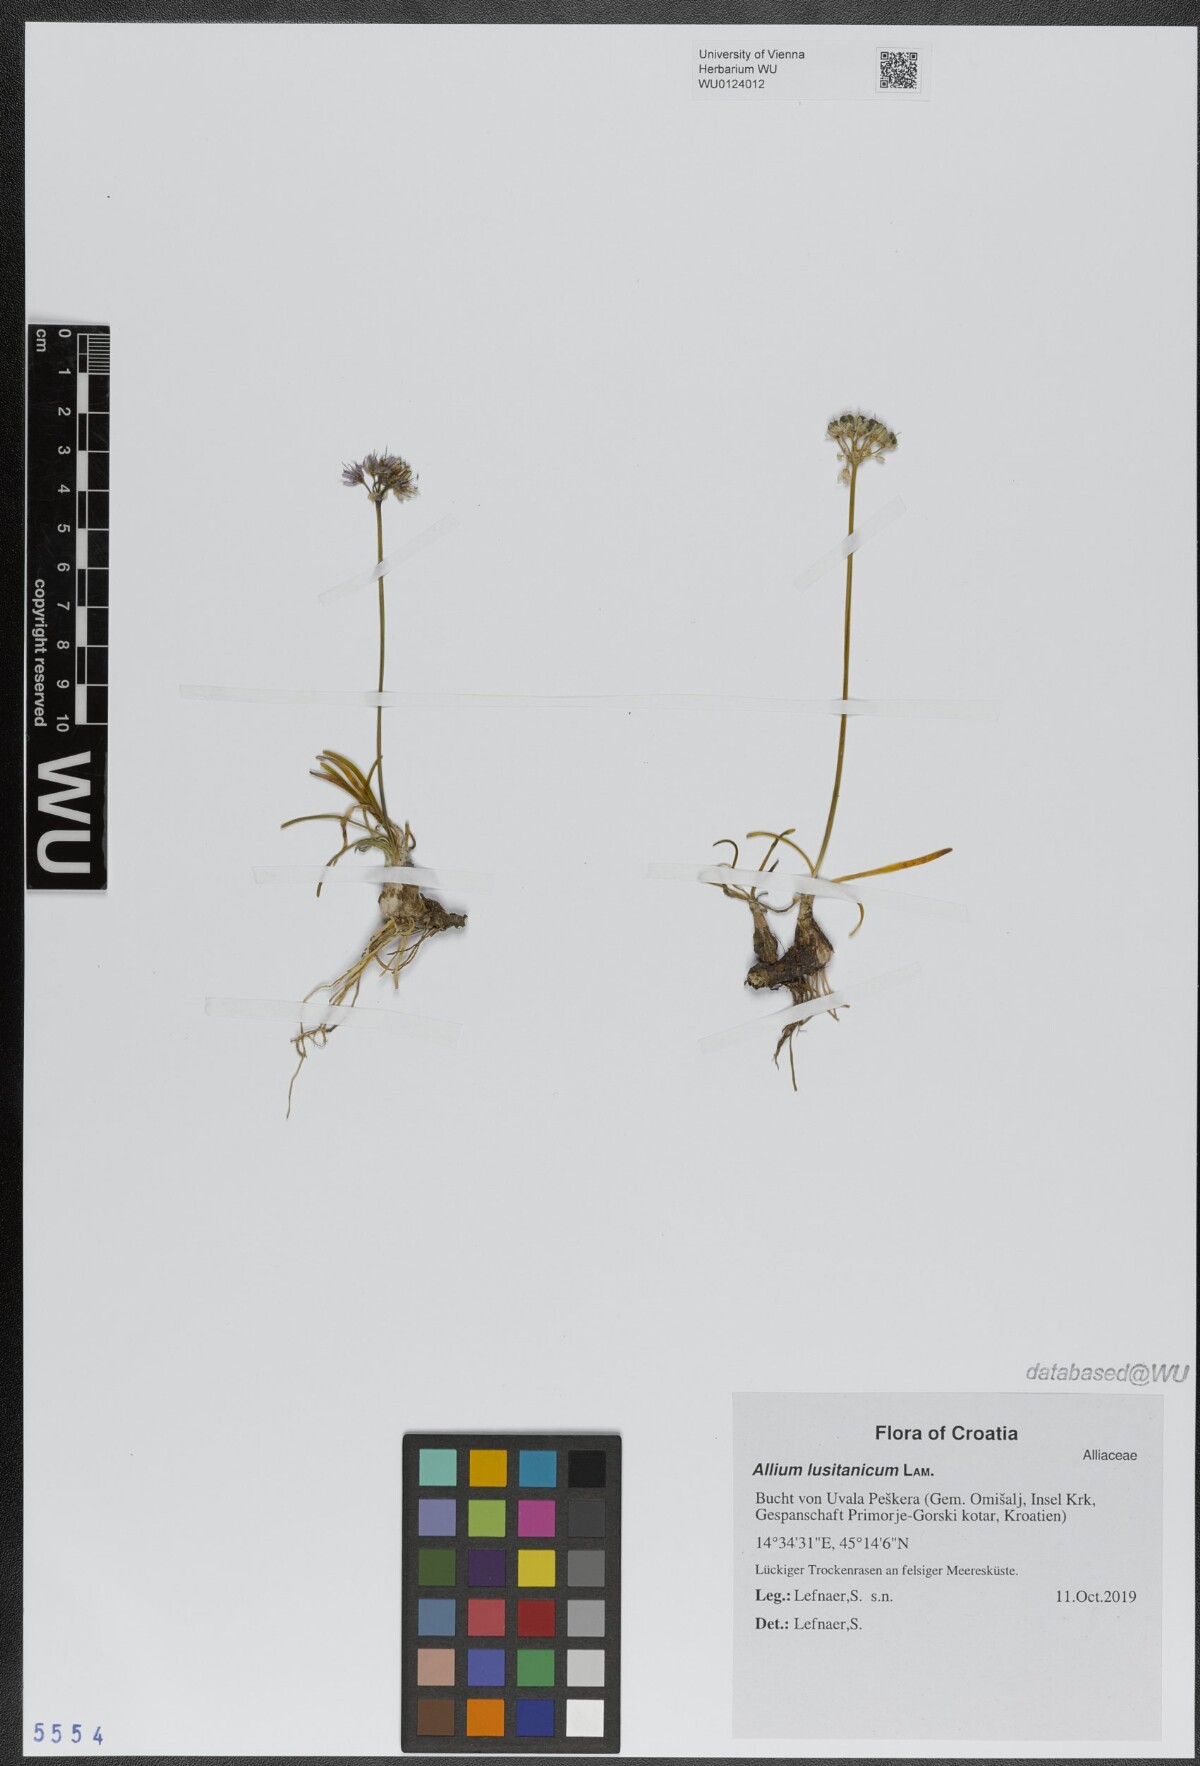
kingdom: Plantae
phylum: Tracheophyta
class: Liliopsida
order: Asparagales
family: Amaryllidaceae
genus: Allium
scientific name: Allium lusitanicum
